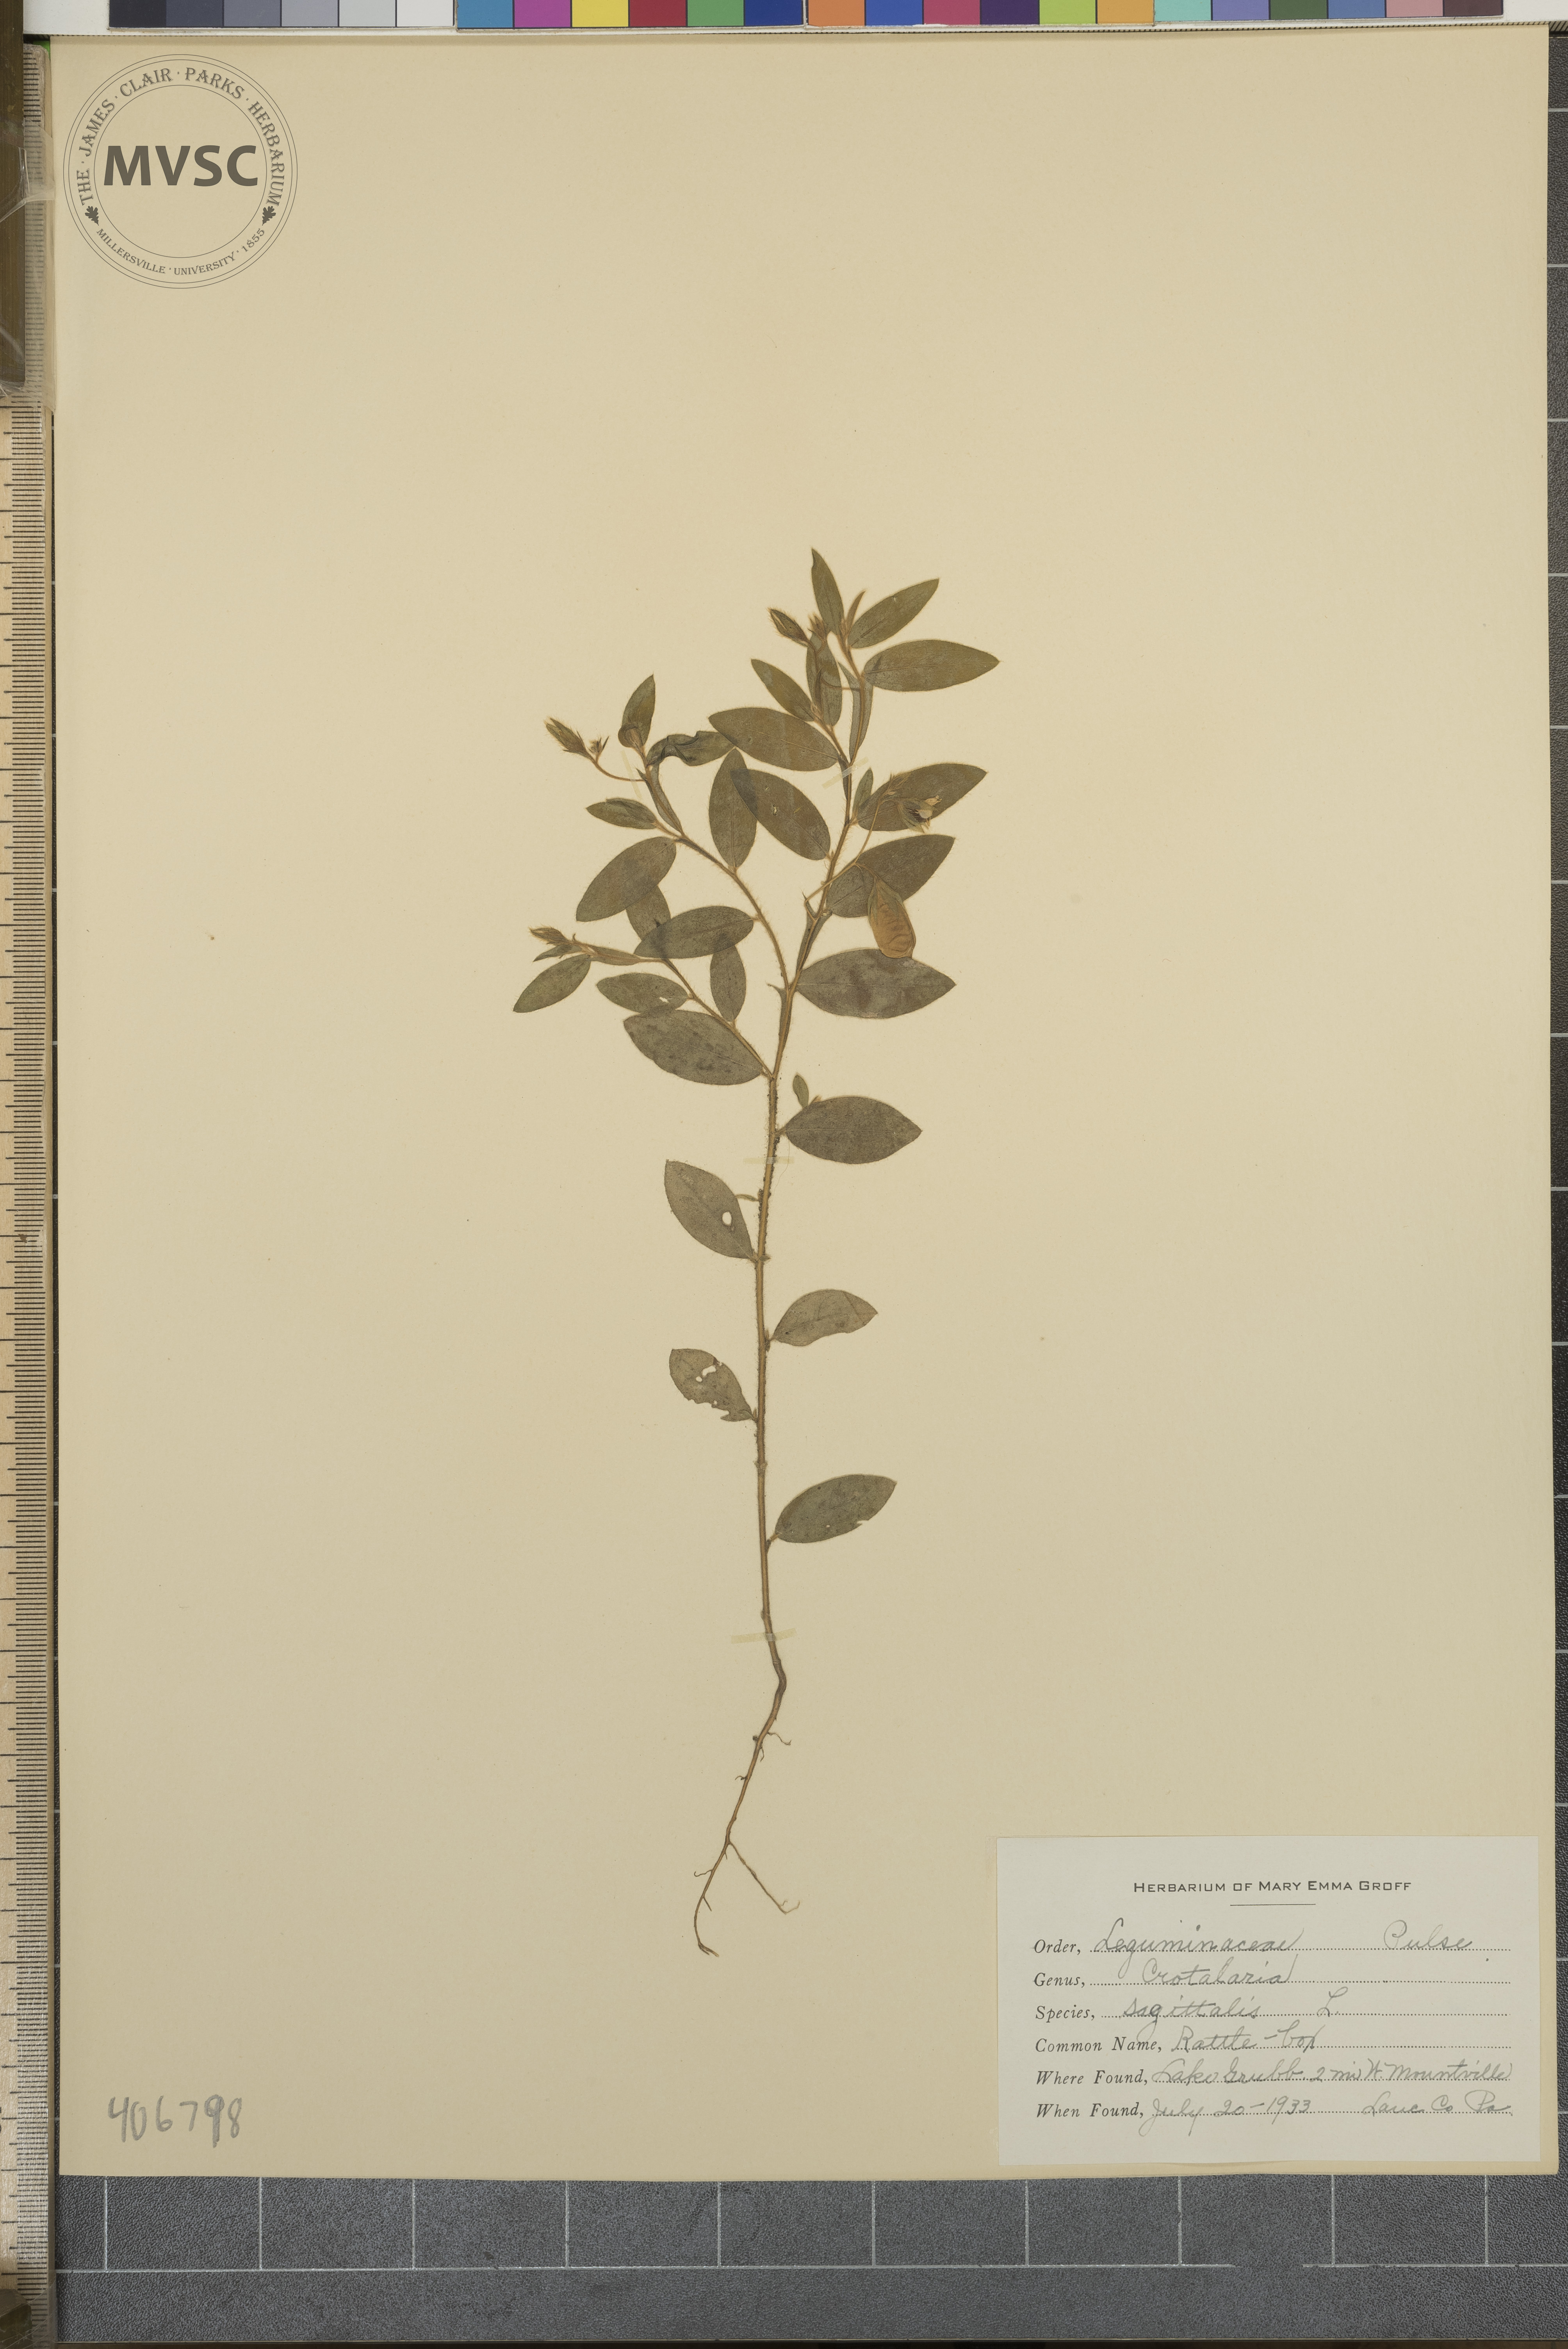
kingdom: Plantae
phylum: Tracheophyta
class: Magnoliopsida
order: Fabales
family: Fabaceae
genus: Crotalaria
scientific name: Crotalaria sagittalis
